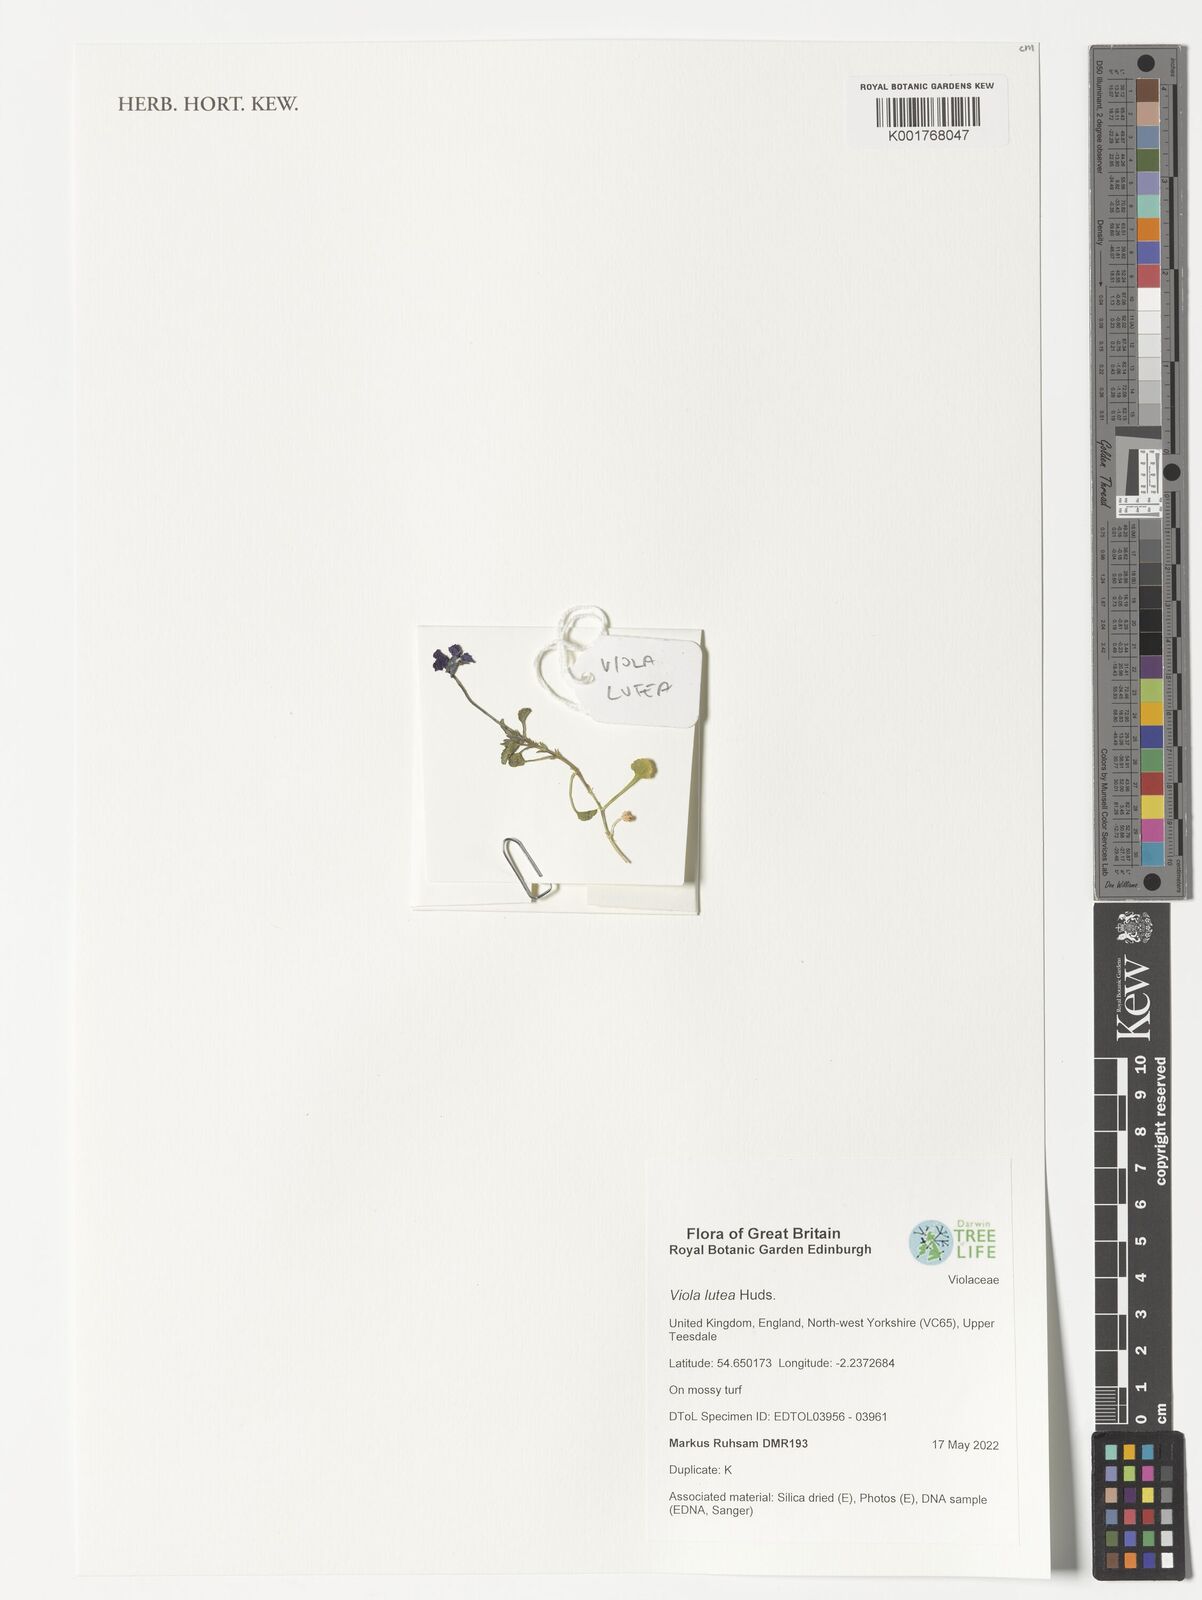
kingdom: Plantae
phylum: Tracheophyta
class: Magnoliopsida
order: Malpighiales
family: Violaceae
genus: Viola
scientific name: Viola lutea
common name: Mountain pansy
